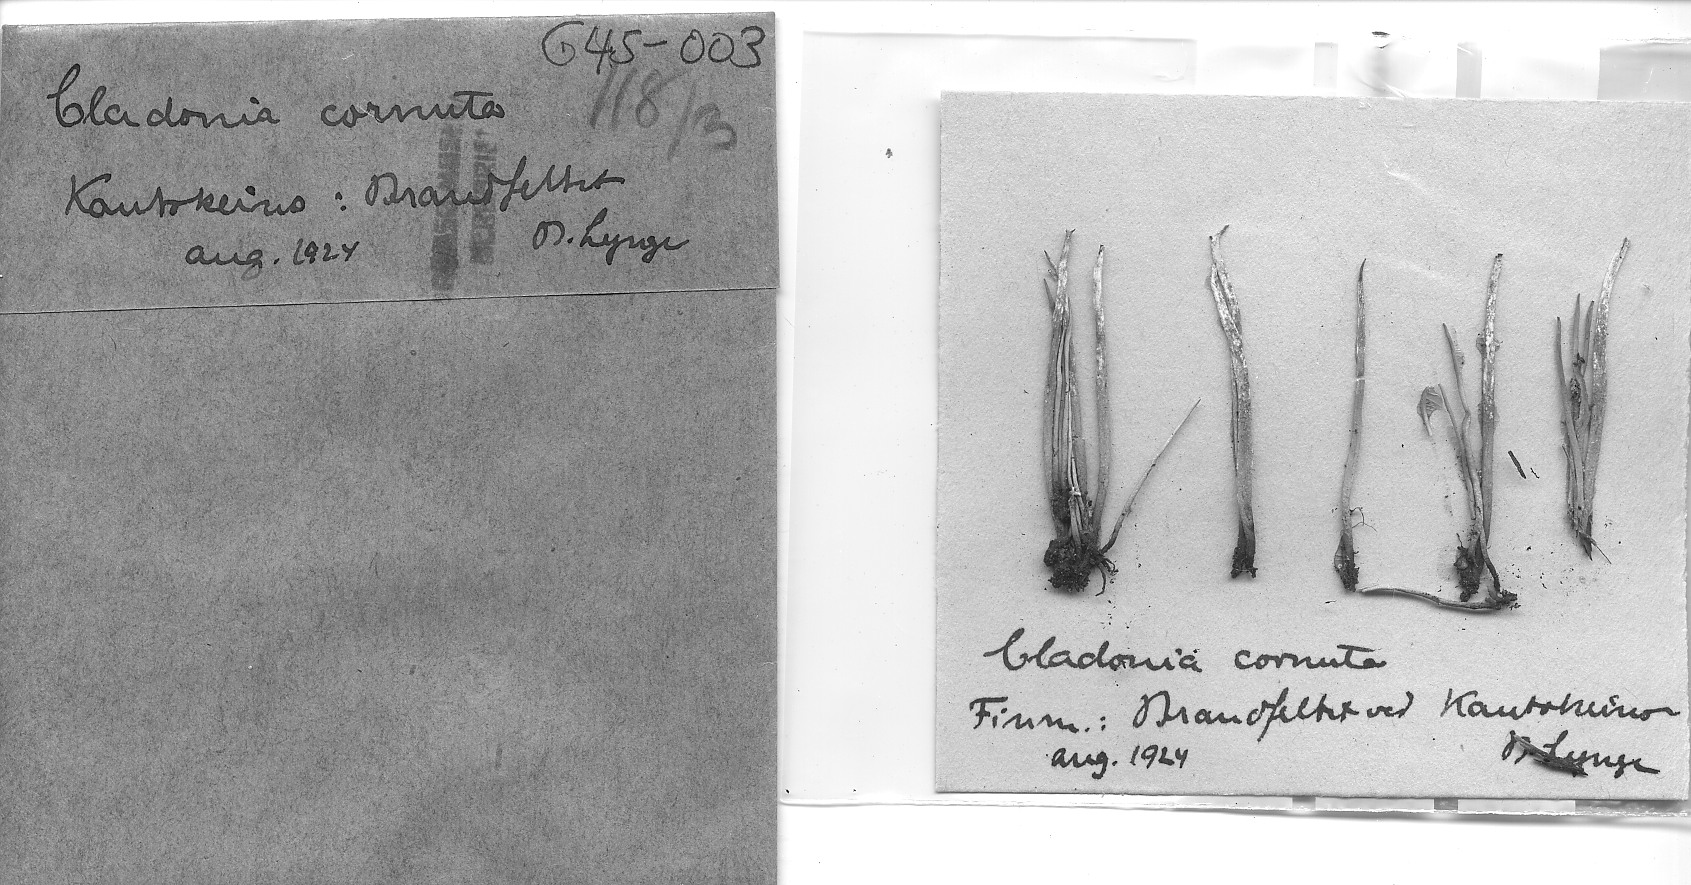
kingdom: Fungi
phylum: Ascomycota
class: Lecanoromycetes
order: Lecanorales
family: Cladoniaceae
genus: Cladonia
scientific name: Cladonia cornuta
